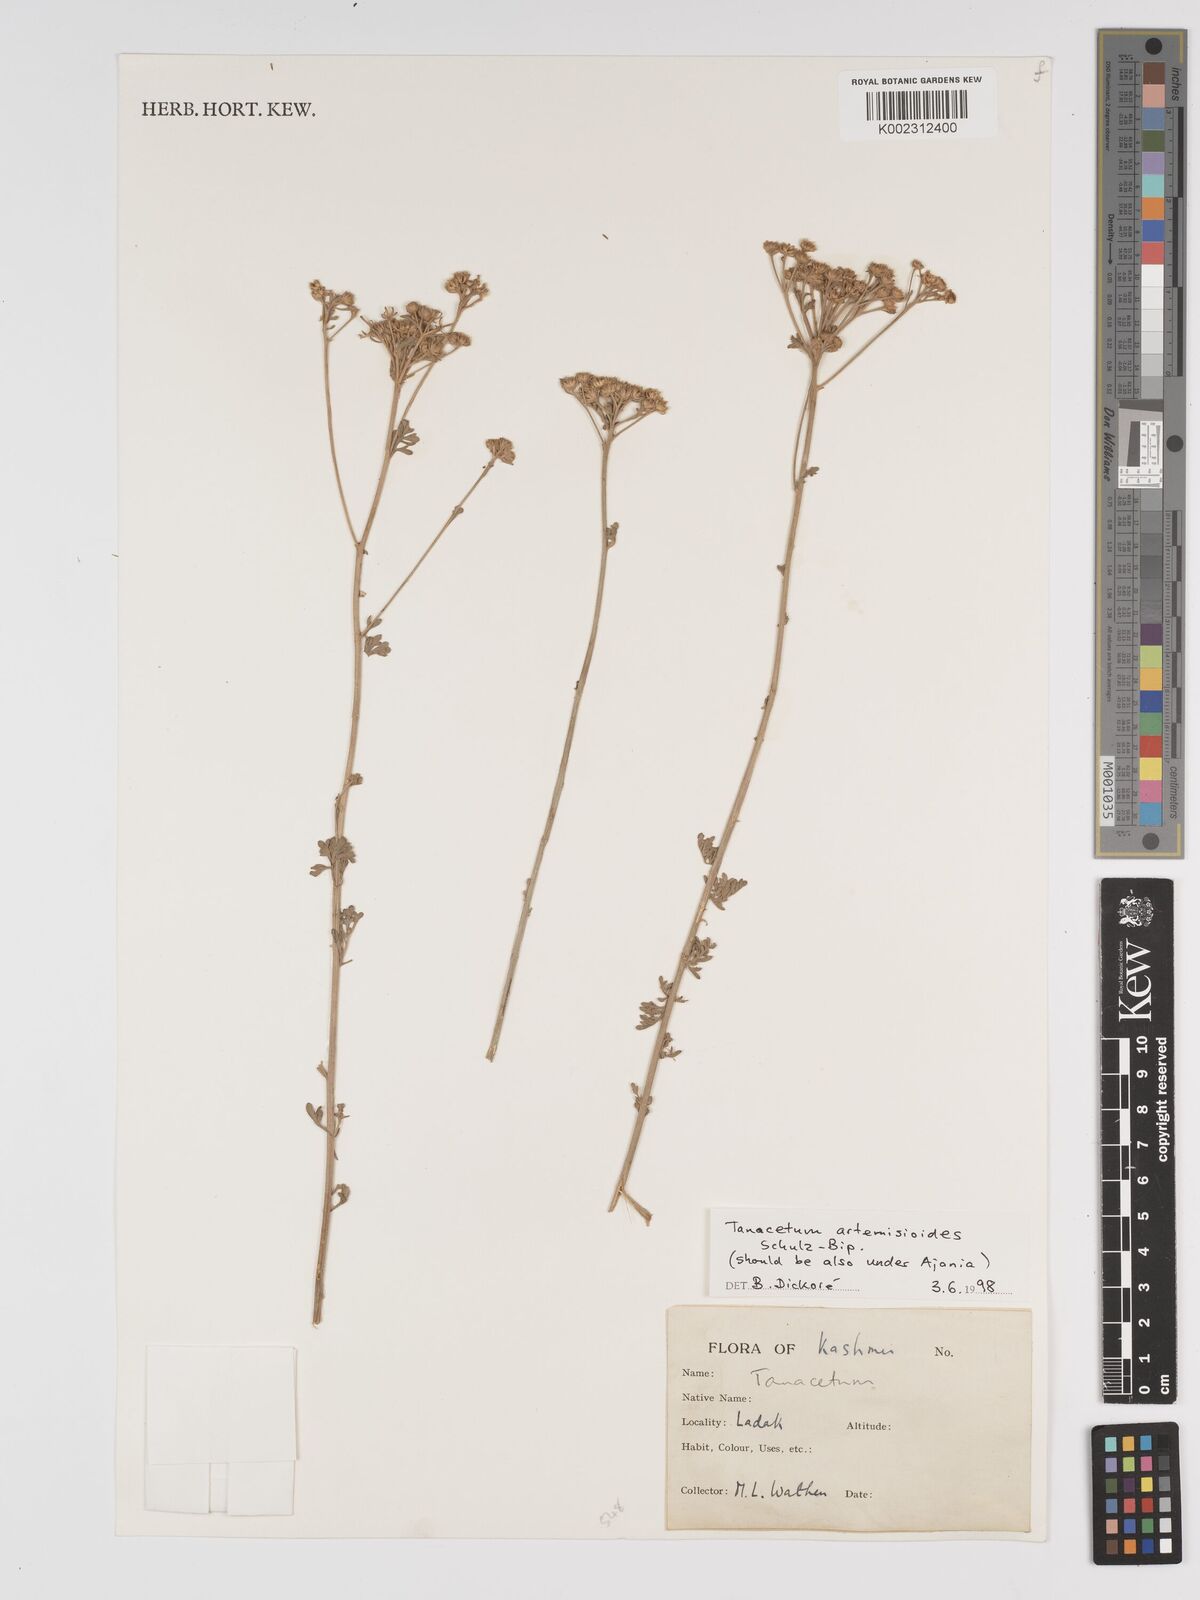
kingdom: Plantae
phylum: Tracheophyta
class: Magnoliopsida
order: Asterales
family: Asteraceae
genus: Tanacetum
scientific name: Tanacetum artemisioides
